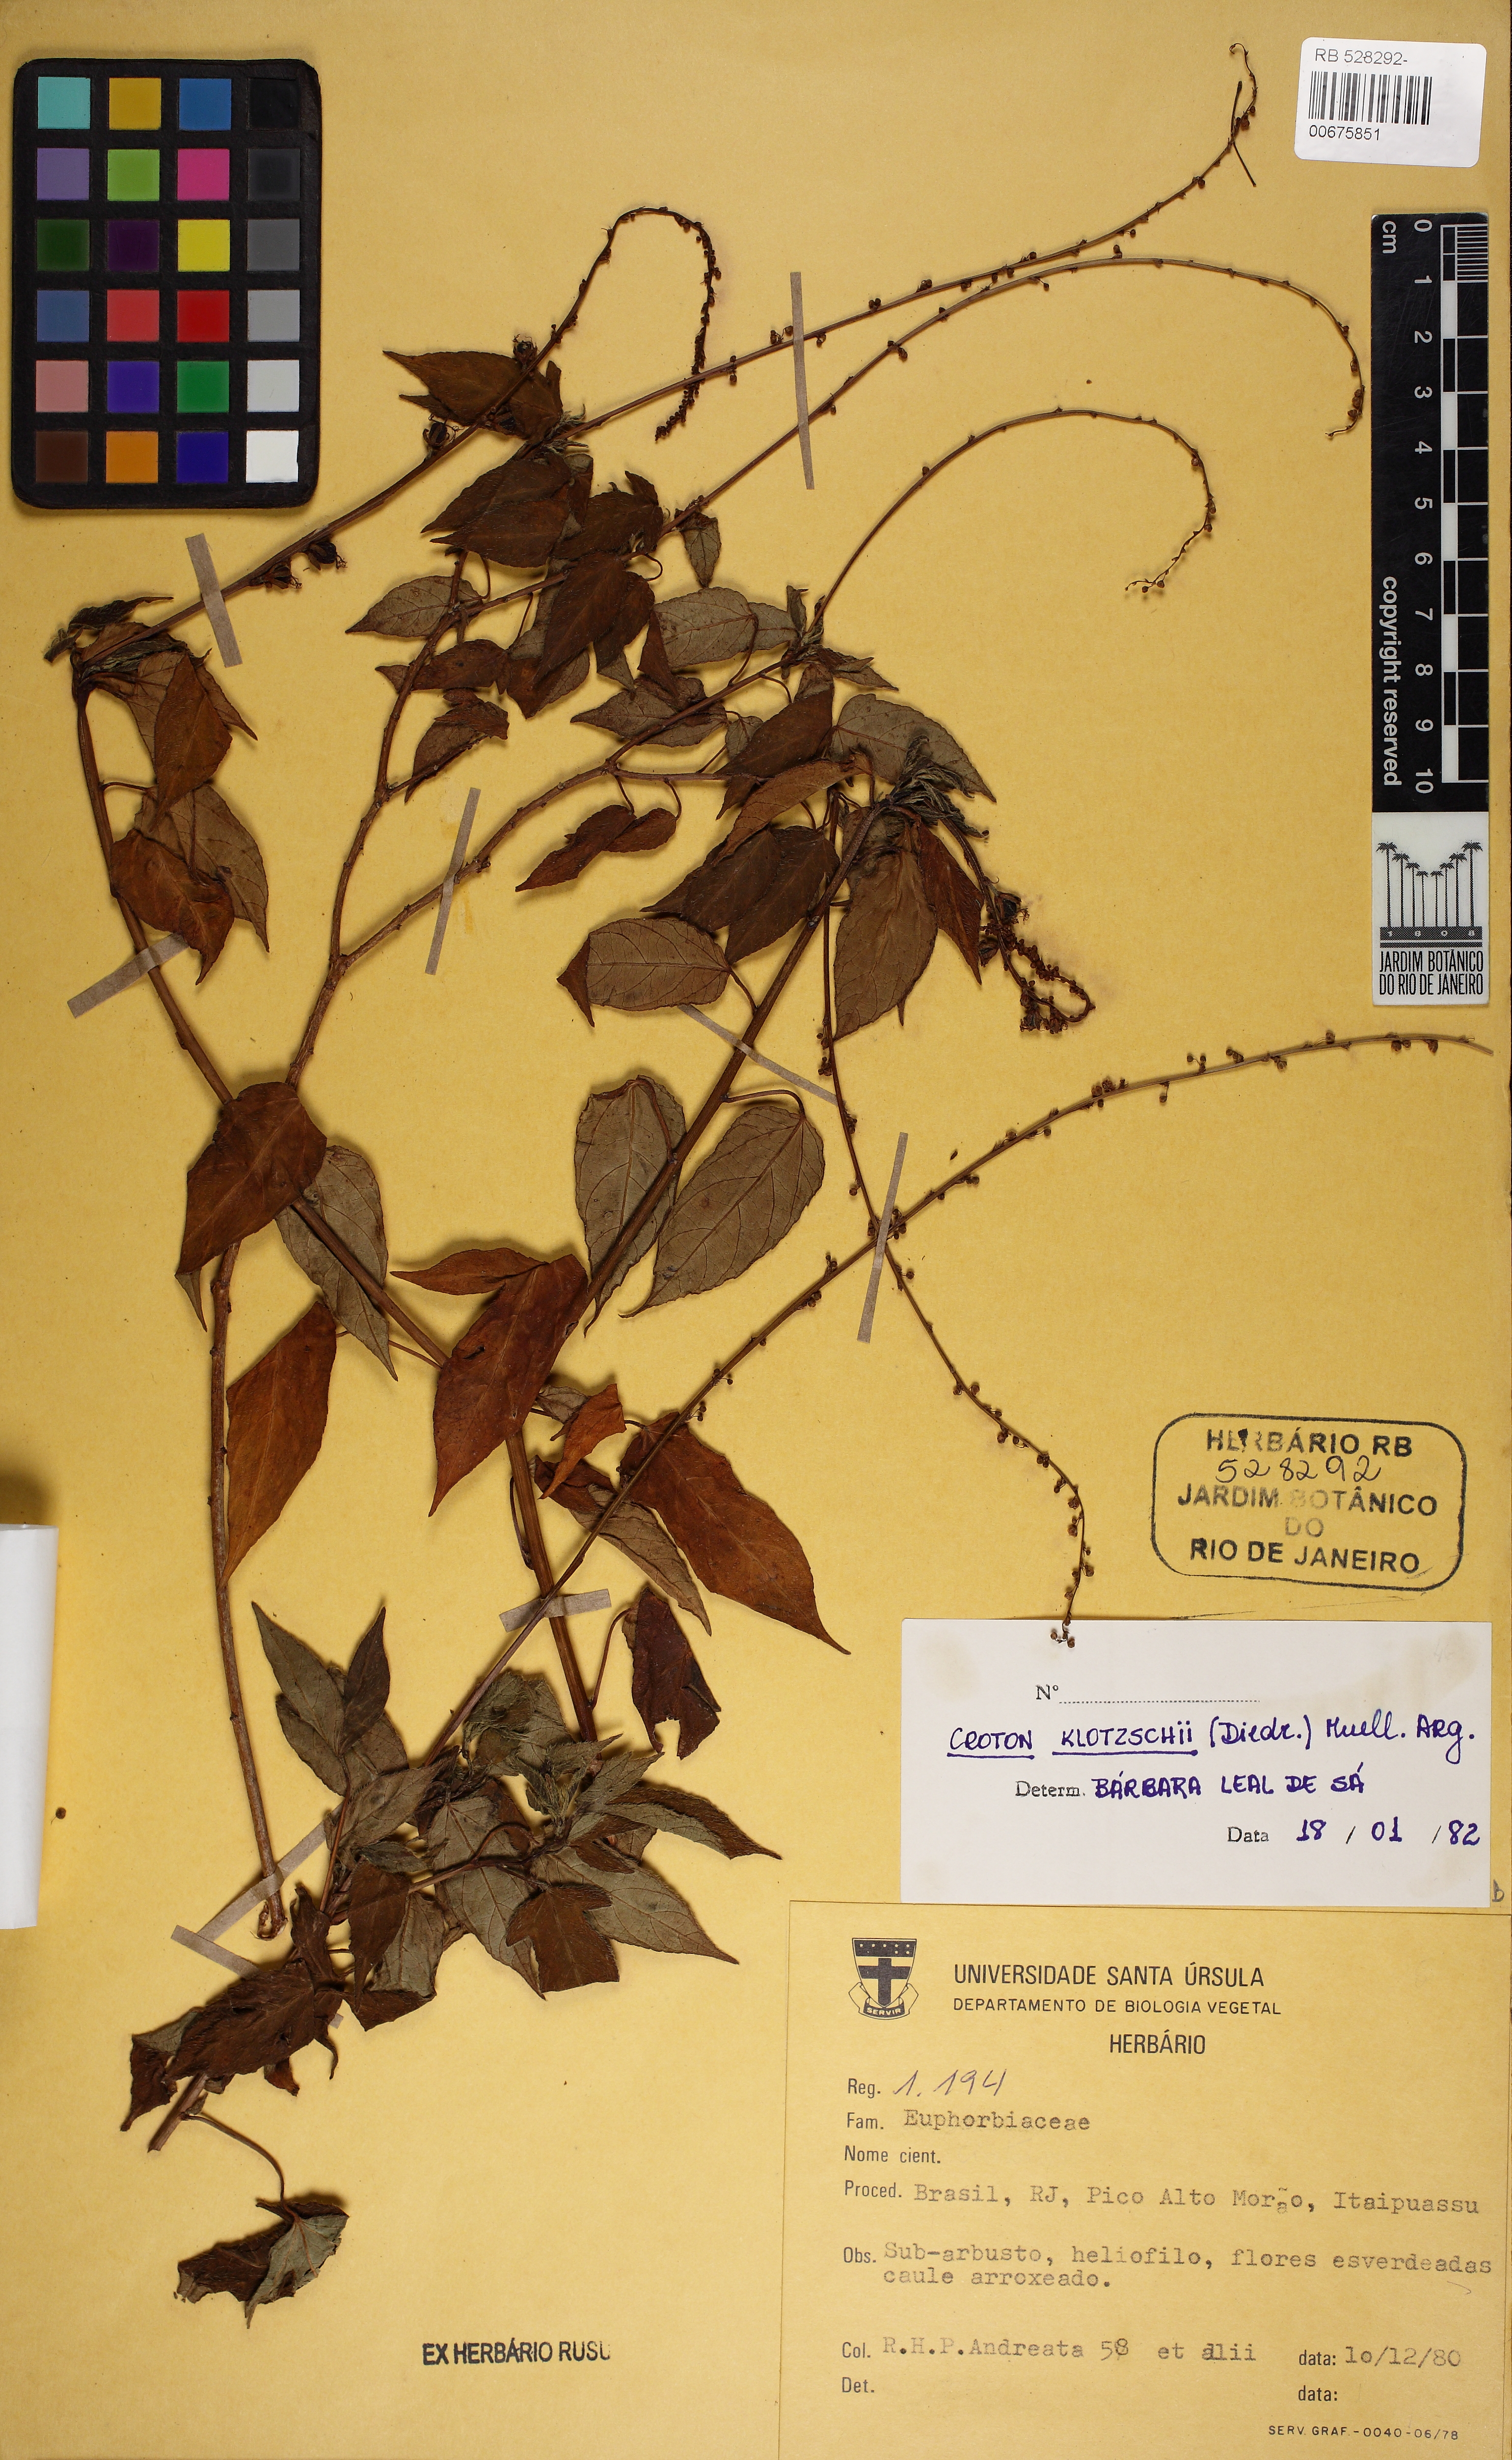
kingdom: Plantae
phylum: Tracheophyta
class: Magnoliopsida
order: Malpighiales
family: Euphorbiaceae
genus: Astraea
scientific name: Astraea macroura
